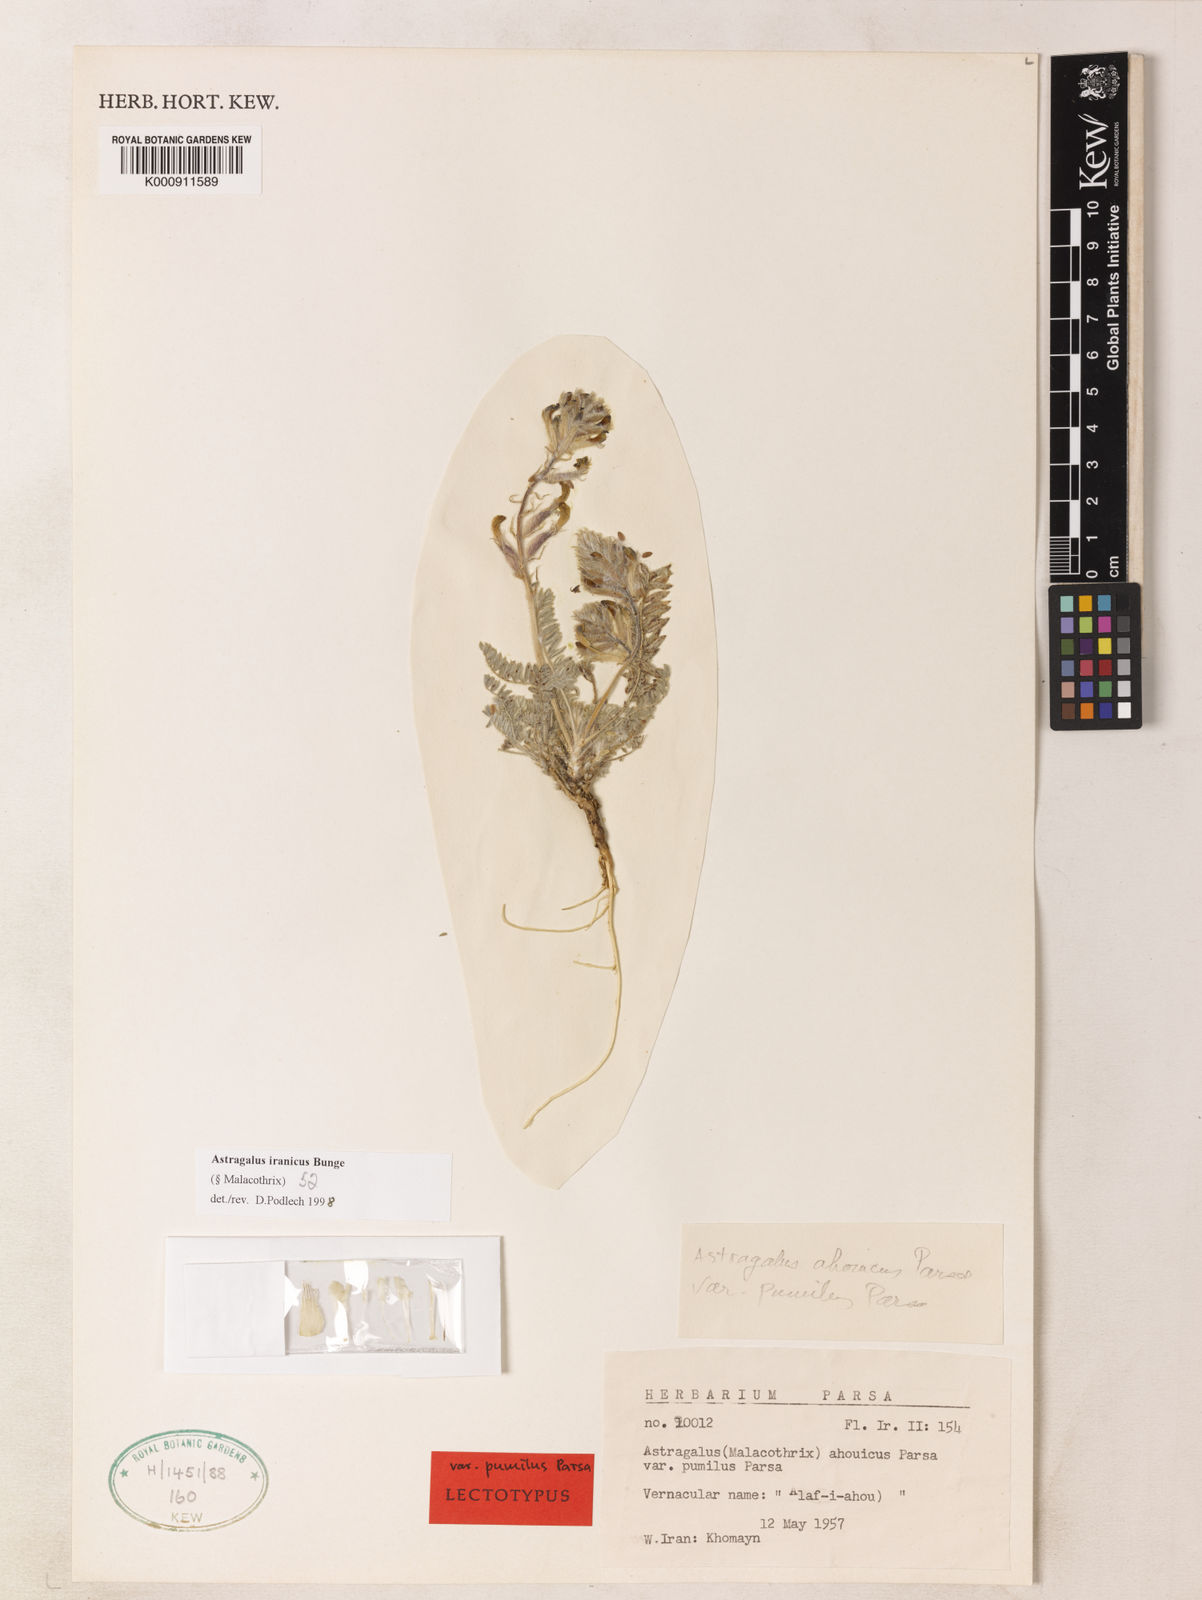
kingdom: Plantae
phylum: Tracheophyta
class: Magnoliopsida
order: Fabales
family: Fabaceae
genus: Astragalus
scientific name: Astragalus iranicus
